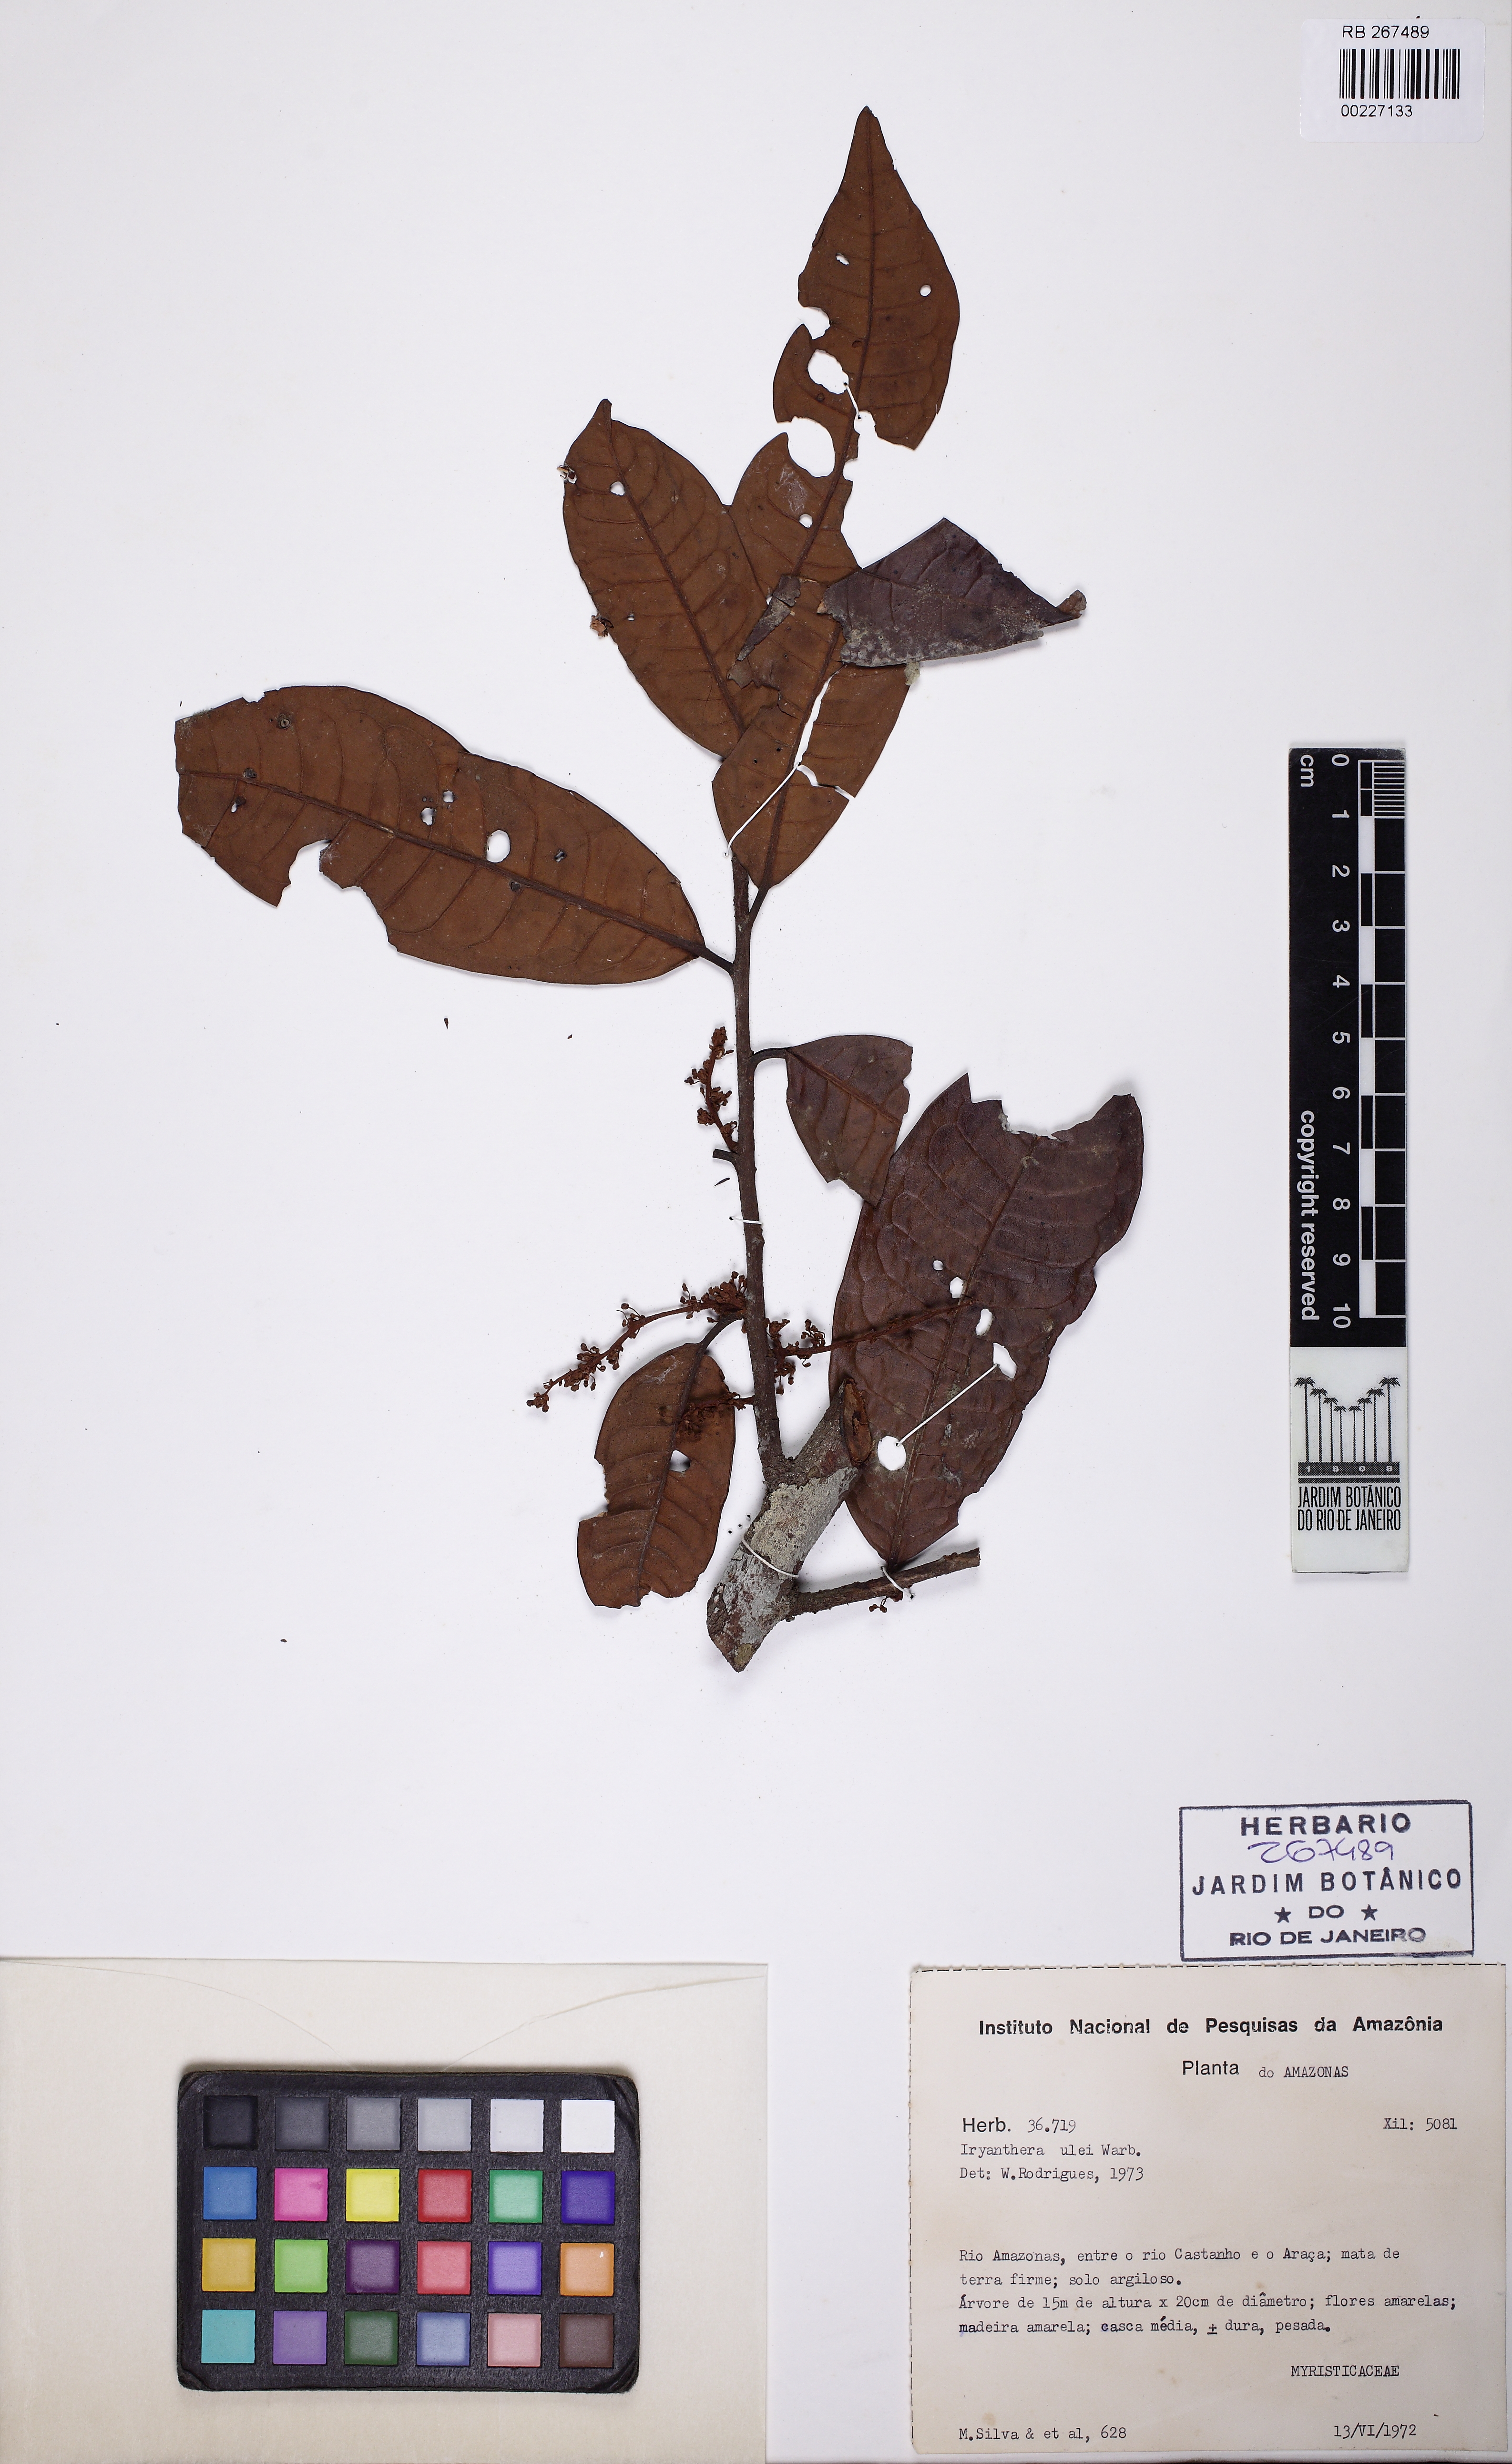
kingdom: Plantae
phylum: Tracheophyta
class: Magnoliopsida
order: Magnoliales
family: Myristicaceae
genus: Iryanthera
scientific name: Iryanthera ulei
